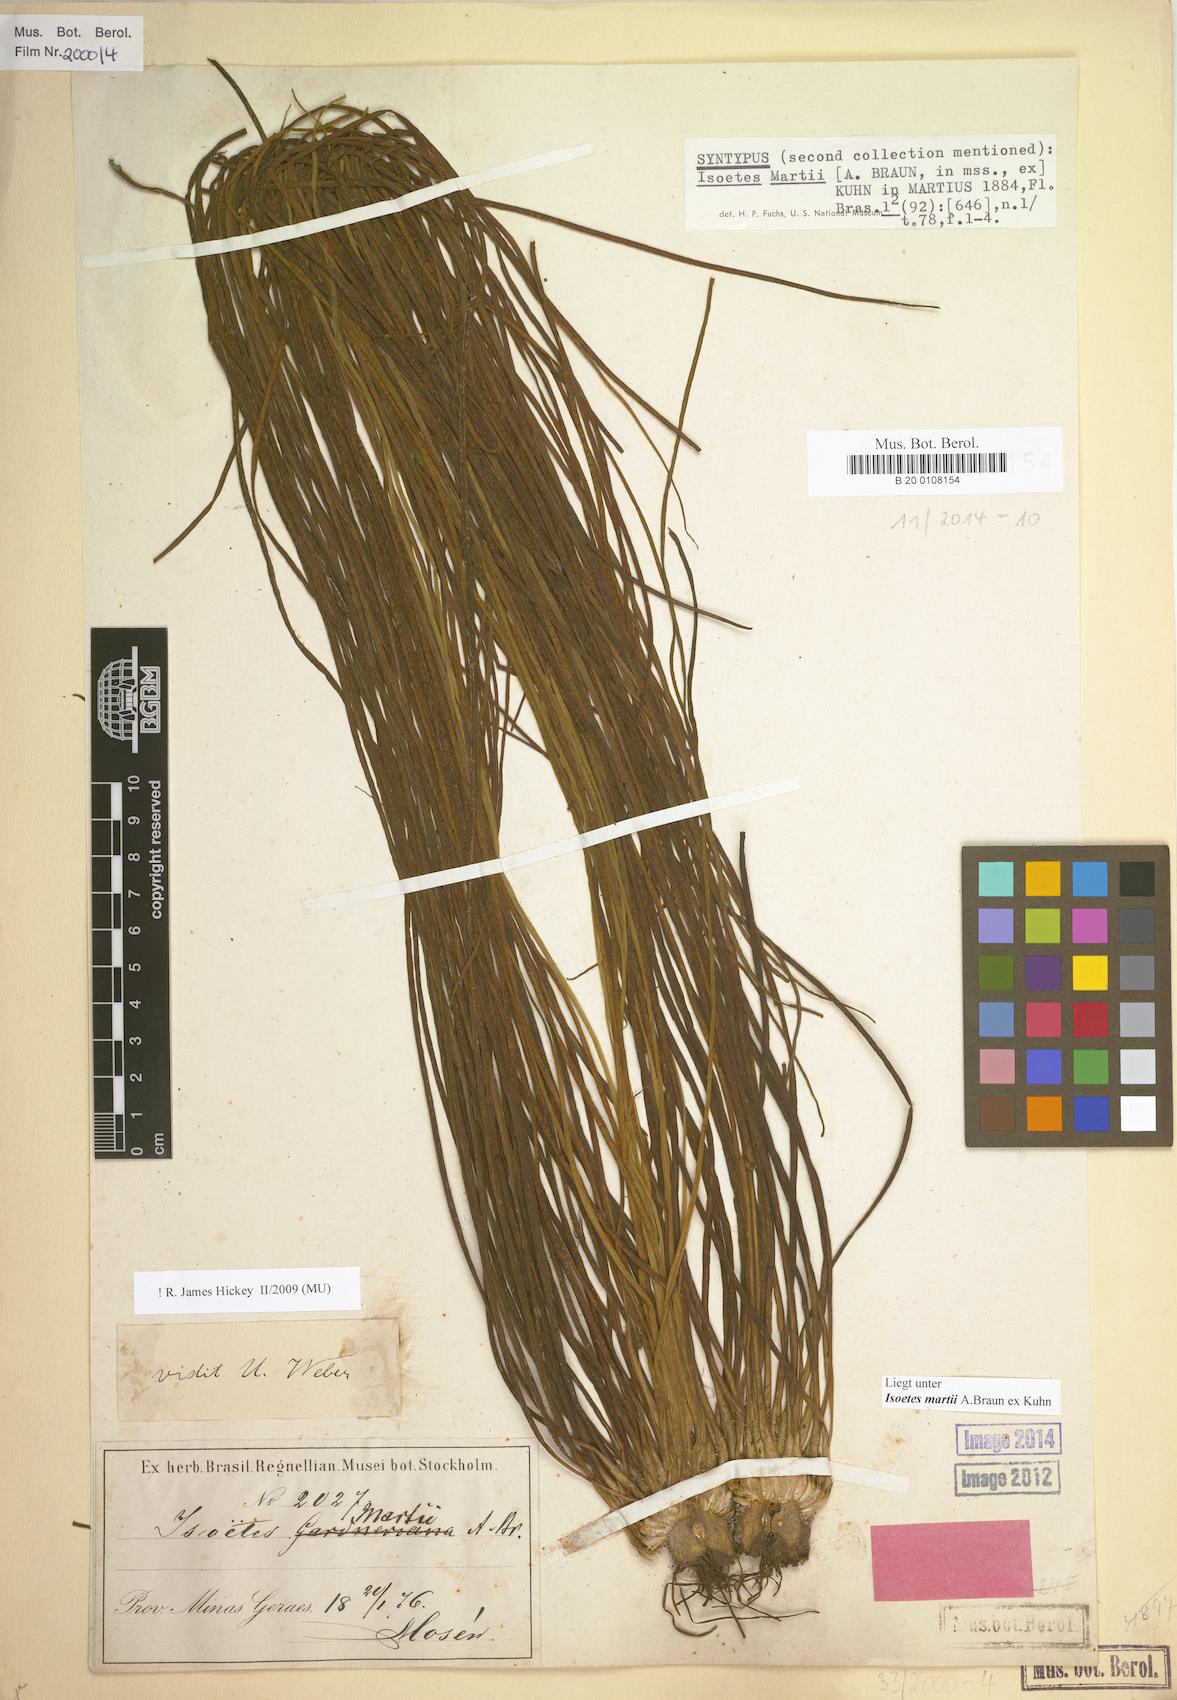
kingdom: Plantae
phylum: Tracheophyta
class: Lycopodiopsida
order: Isoetales
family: Isoetaceae
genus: Isoetes
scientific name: Isoetes martii
